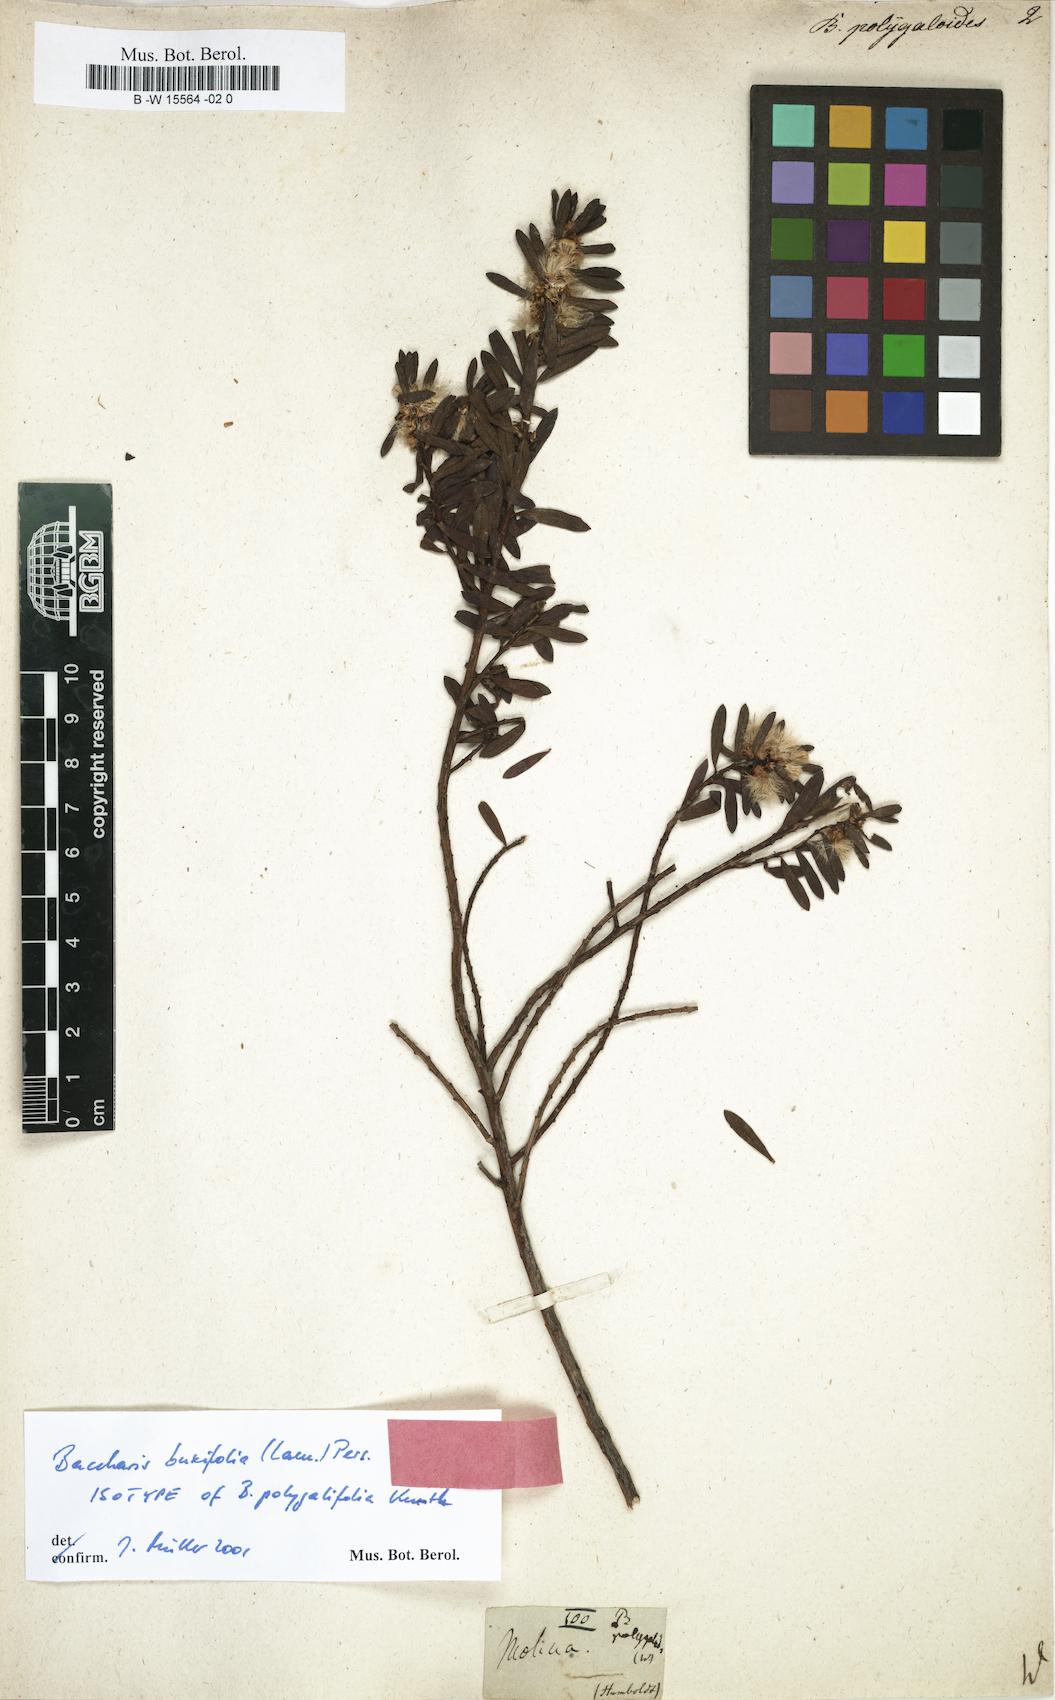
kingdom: Plantae
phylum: Tracheophyta
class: Magnoliopsida
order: Asterales
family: Asteraceae
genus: Baccharis
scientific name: Baccharis
